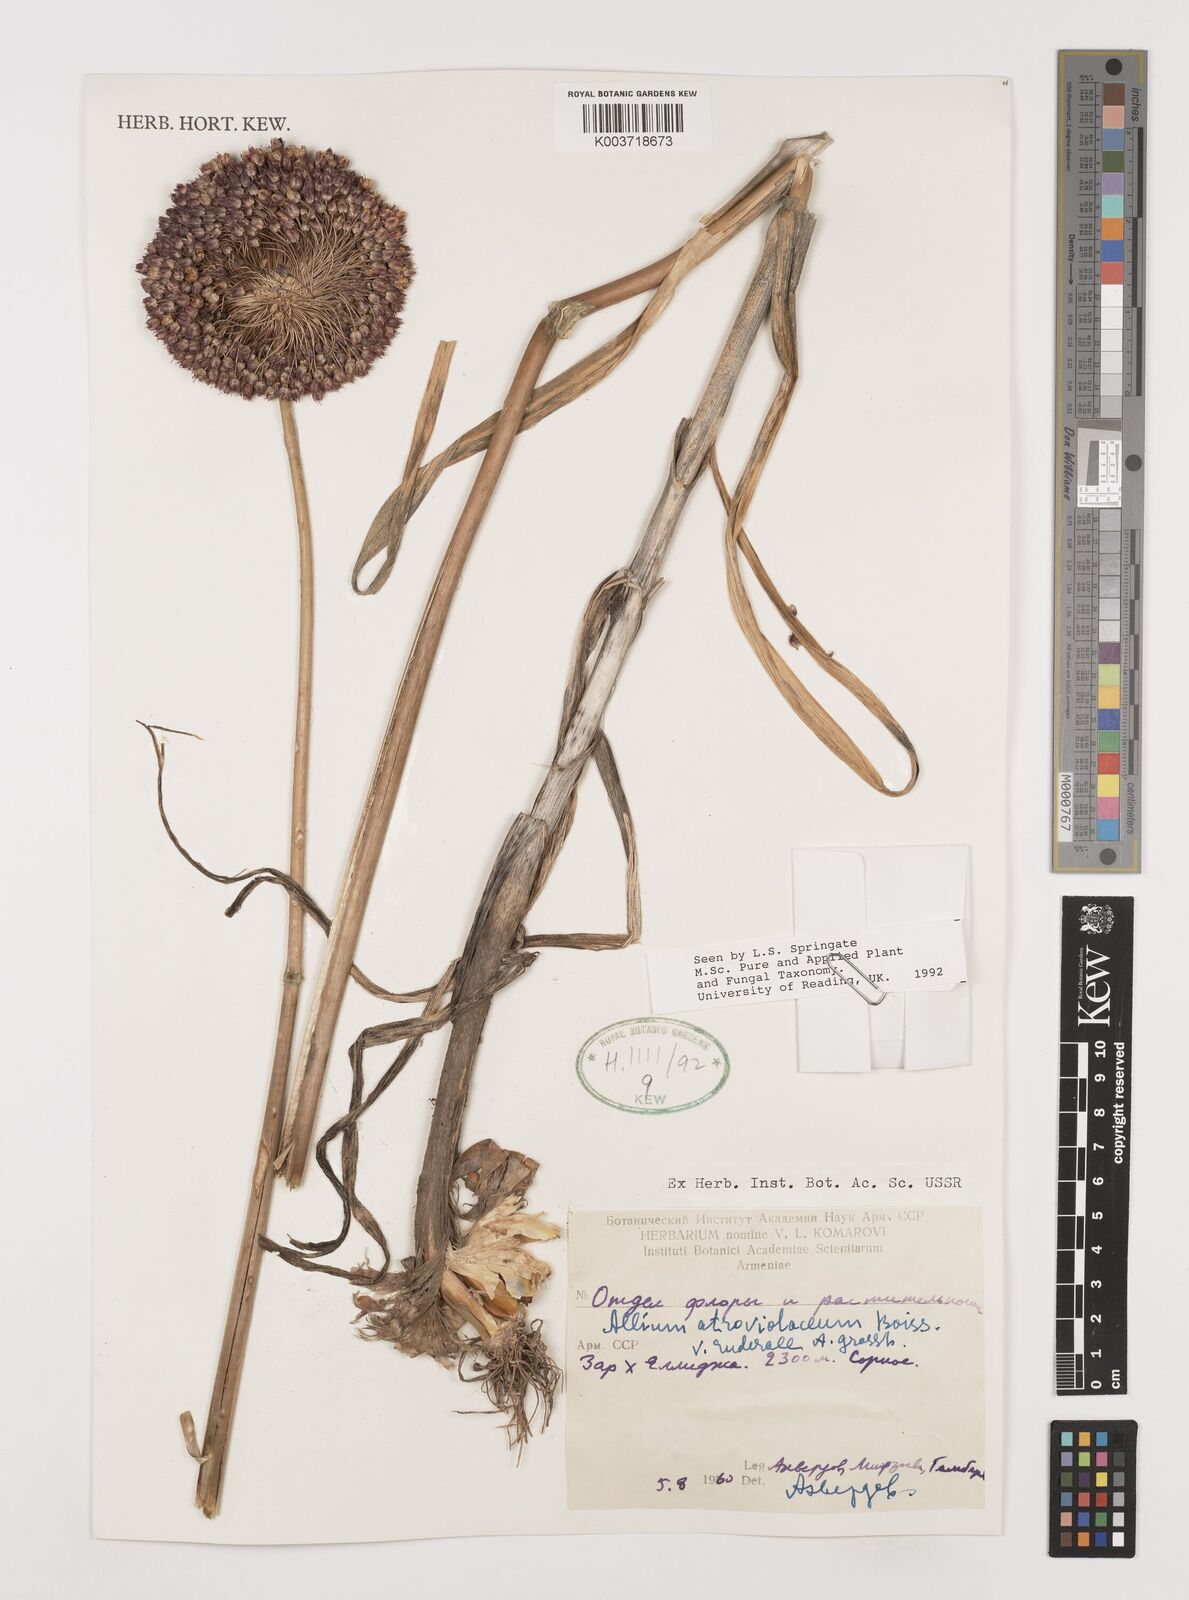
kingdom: Plantae
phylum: Tracheophyta
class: Liliopsida
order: Asparagales
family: Amaryllidaceae
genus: Allium
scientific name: Allium atroviolaceum
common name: Broadleaf wild leek
